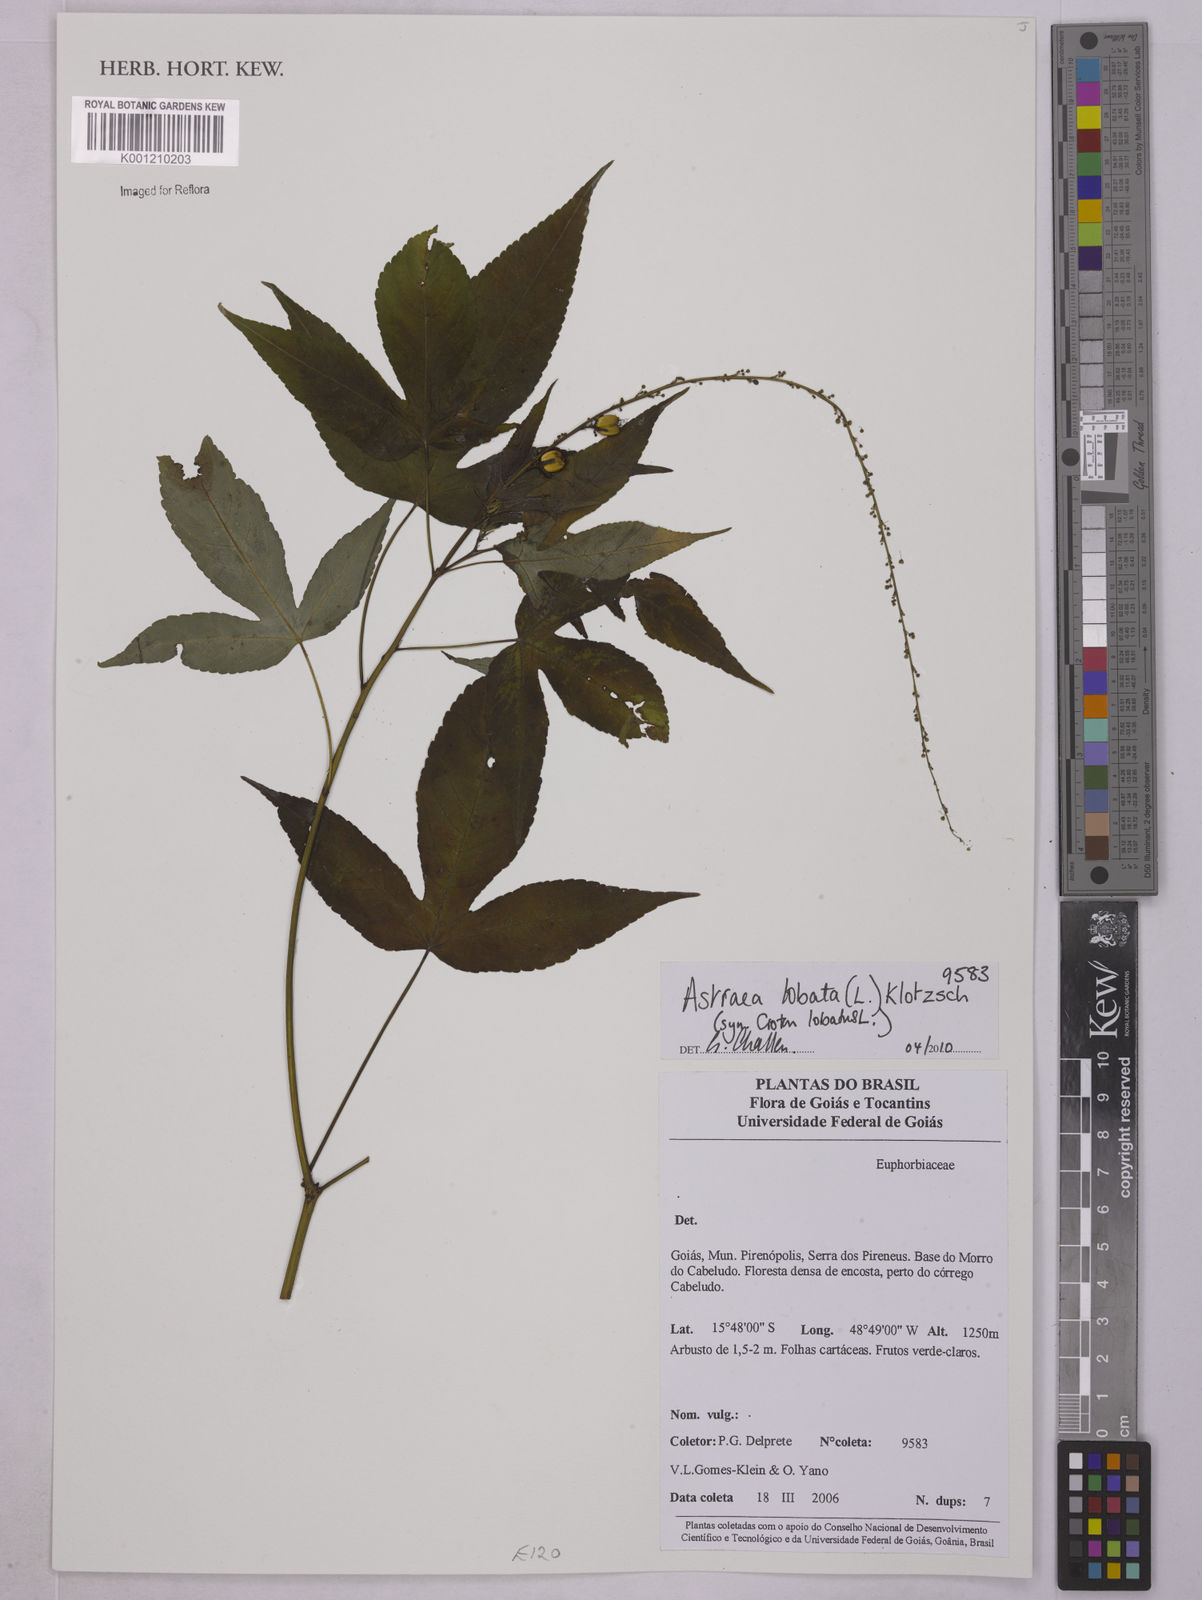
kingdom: Plantae
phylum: Tracheophyta
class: Magnoliopsida
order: Malpighiales
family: Euphorbiaceae
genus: Astraea
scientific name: Astraea lobata
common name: Lobed croton
